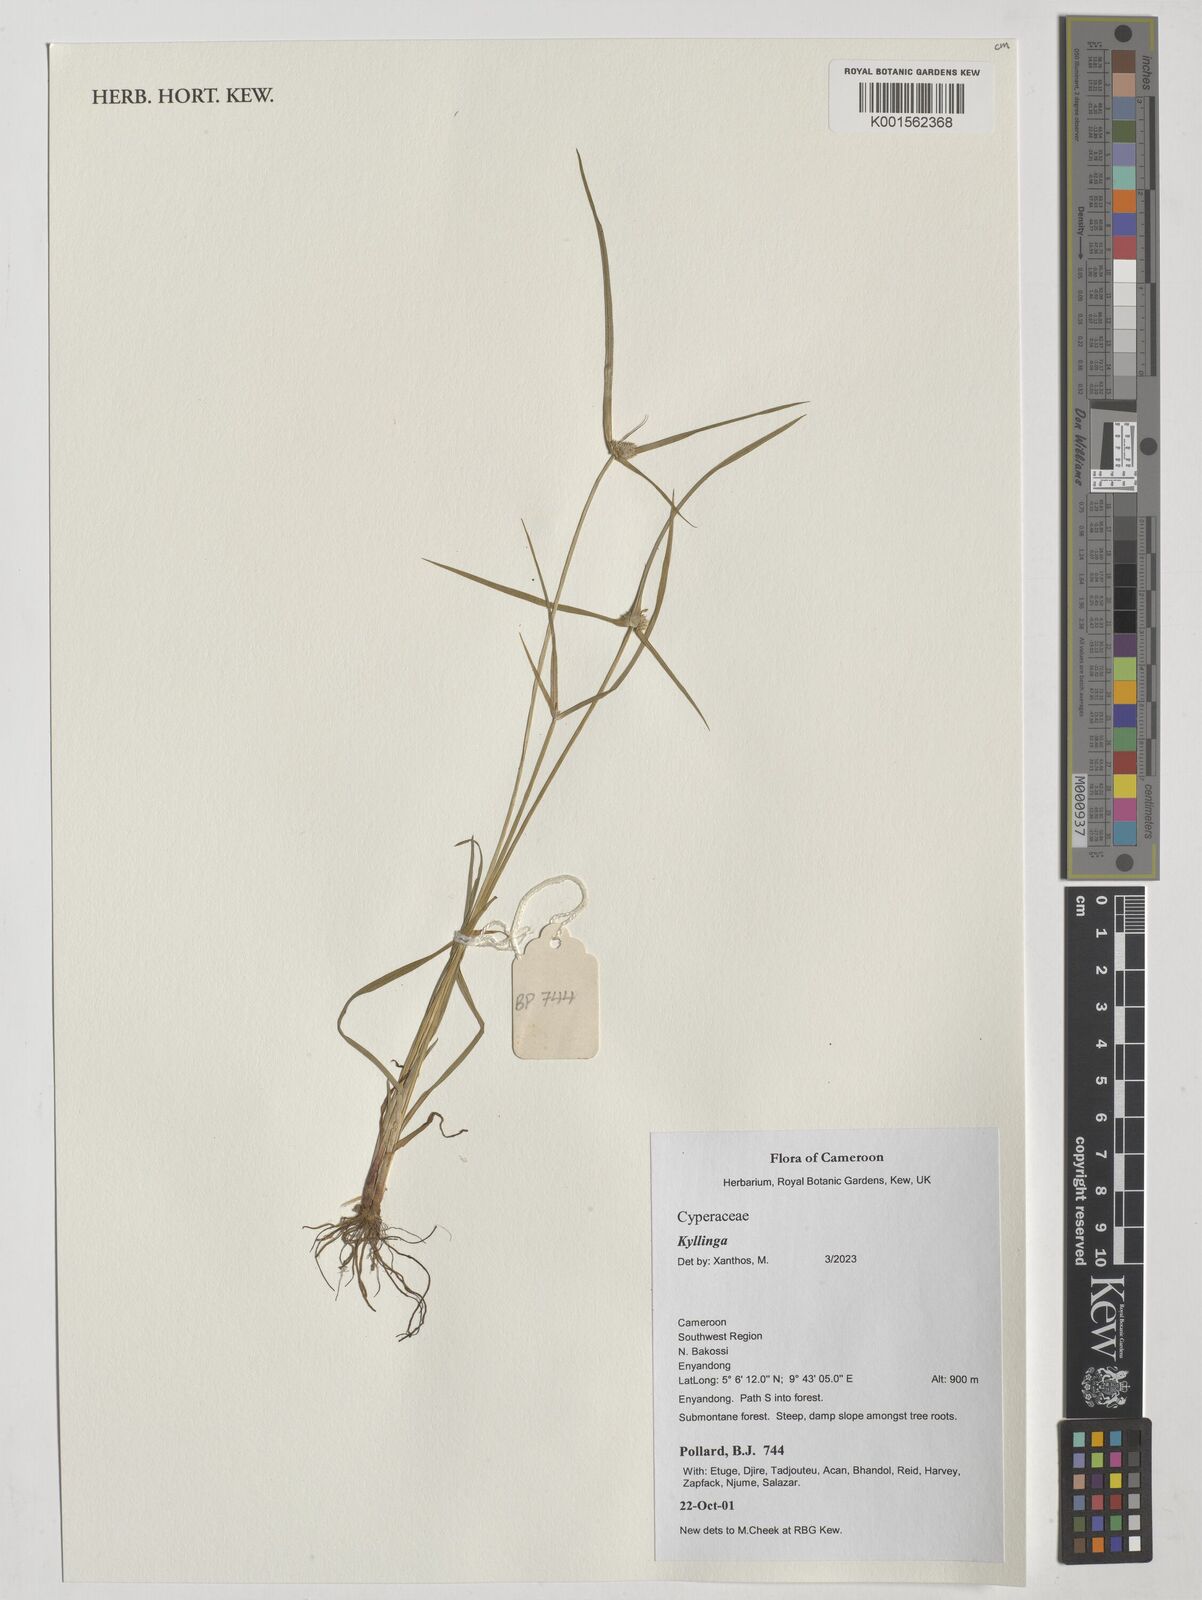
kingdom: Plantae
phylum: Tracheophyta
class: Liliopsida
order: Poales
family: Cyperaceae
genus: Cyperus
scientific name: Cyperus
